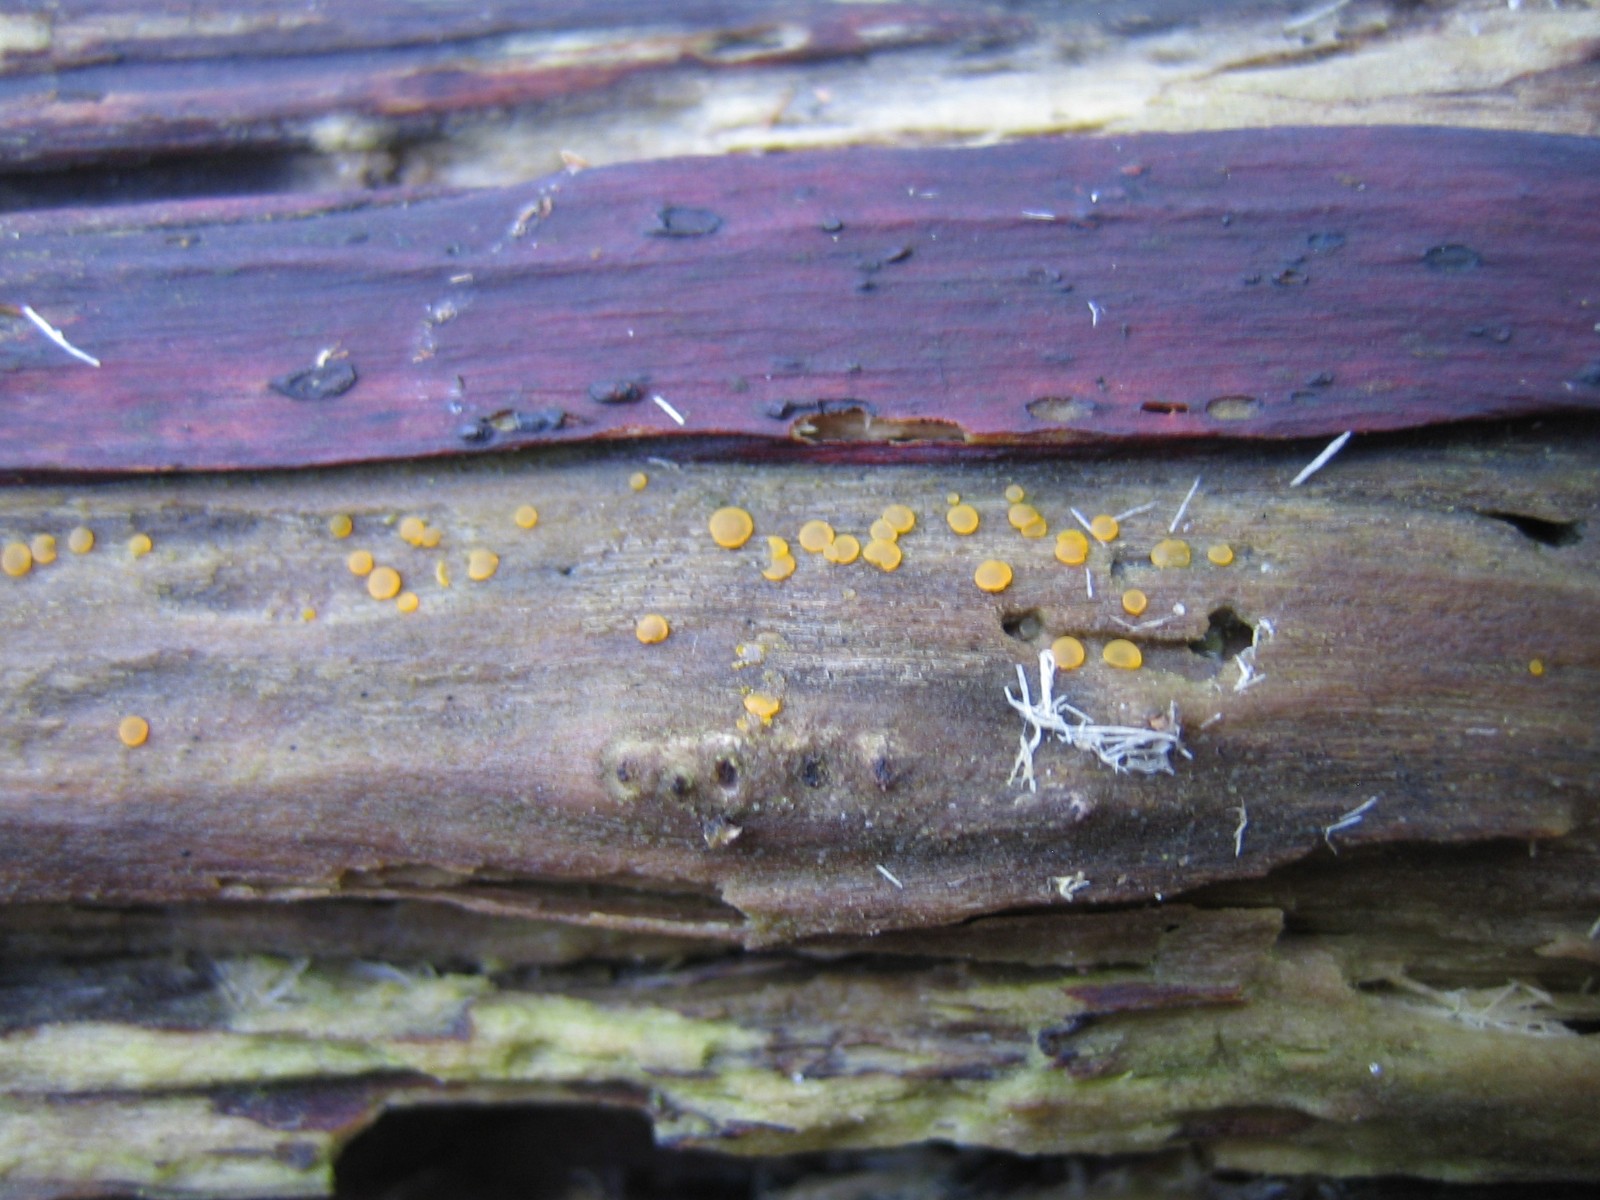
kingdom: Fungi
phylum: Ascomycota
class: Orbiliomycetes
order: Orbiliales
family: Orbiliaceae
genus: Orbilia
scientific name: Orbilia
